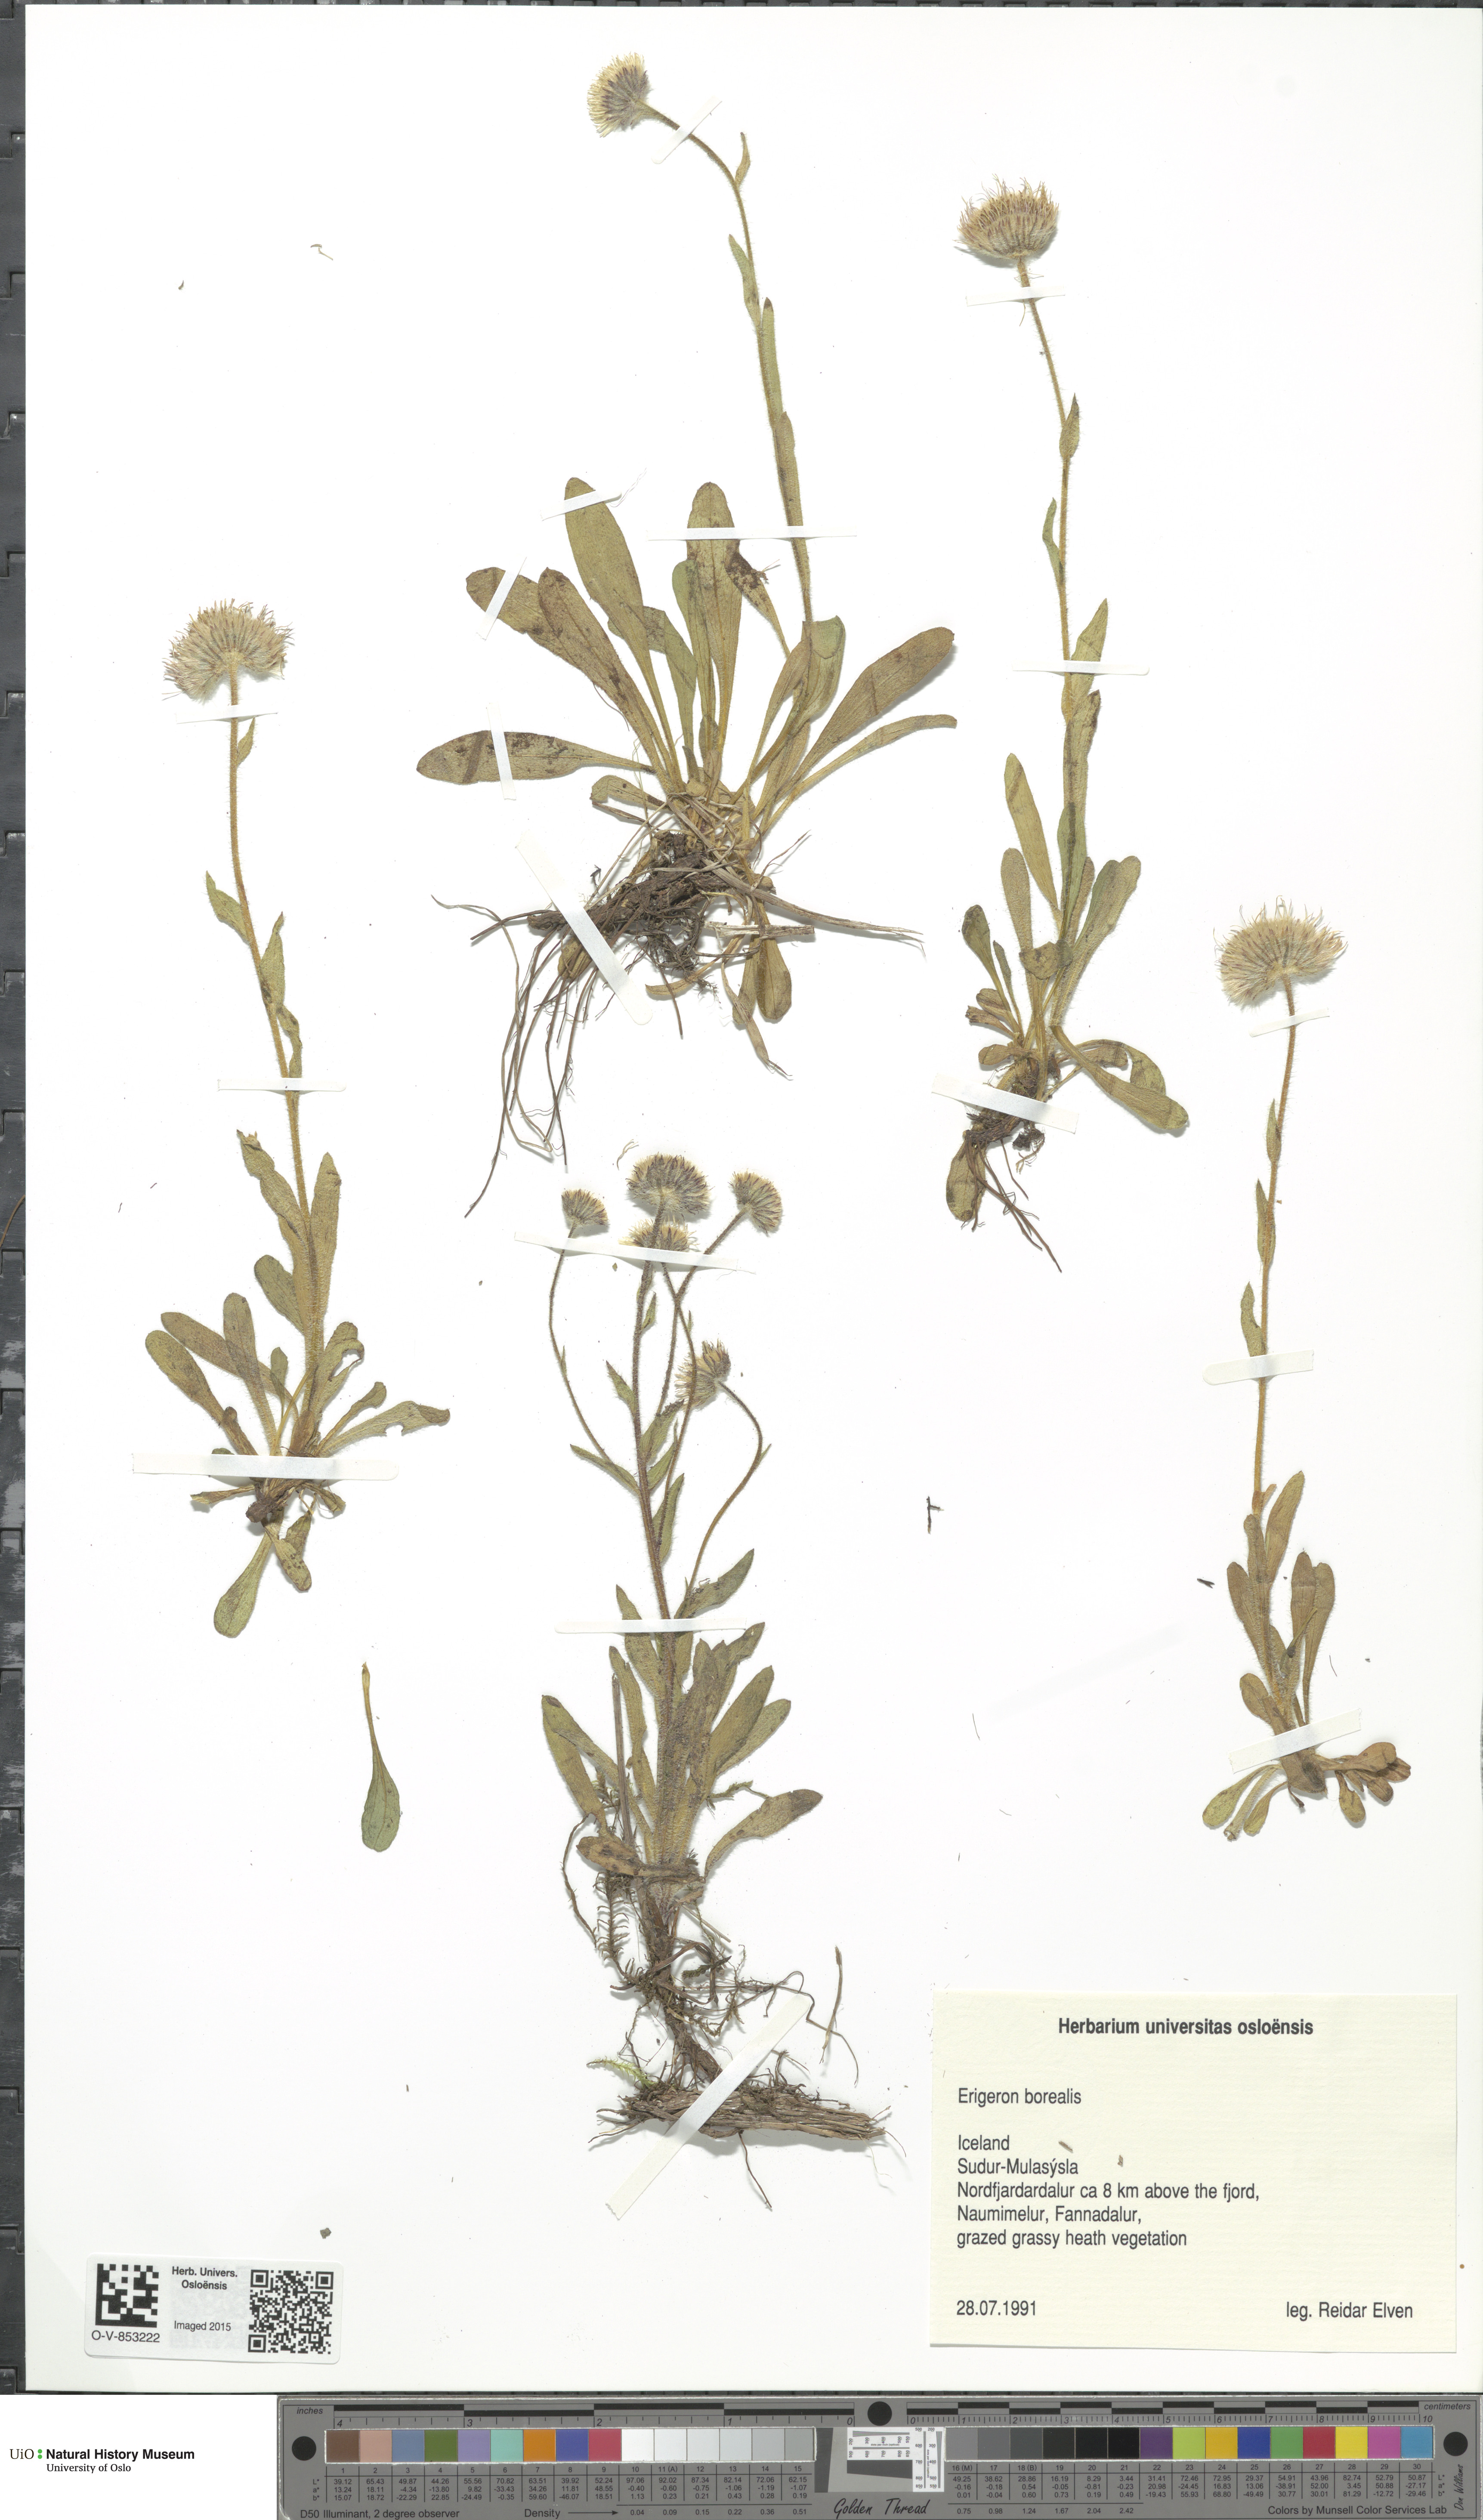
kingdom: Plantae
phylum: Tracheophyta
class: Magnoliopsida
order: Asterales
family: Asteraceae
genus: Erigeron
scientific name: Erigeron borealis
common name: Alpine fleabane
